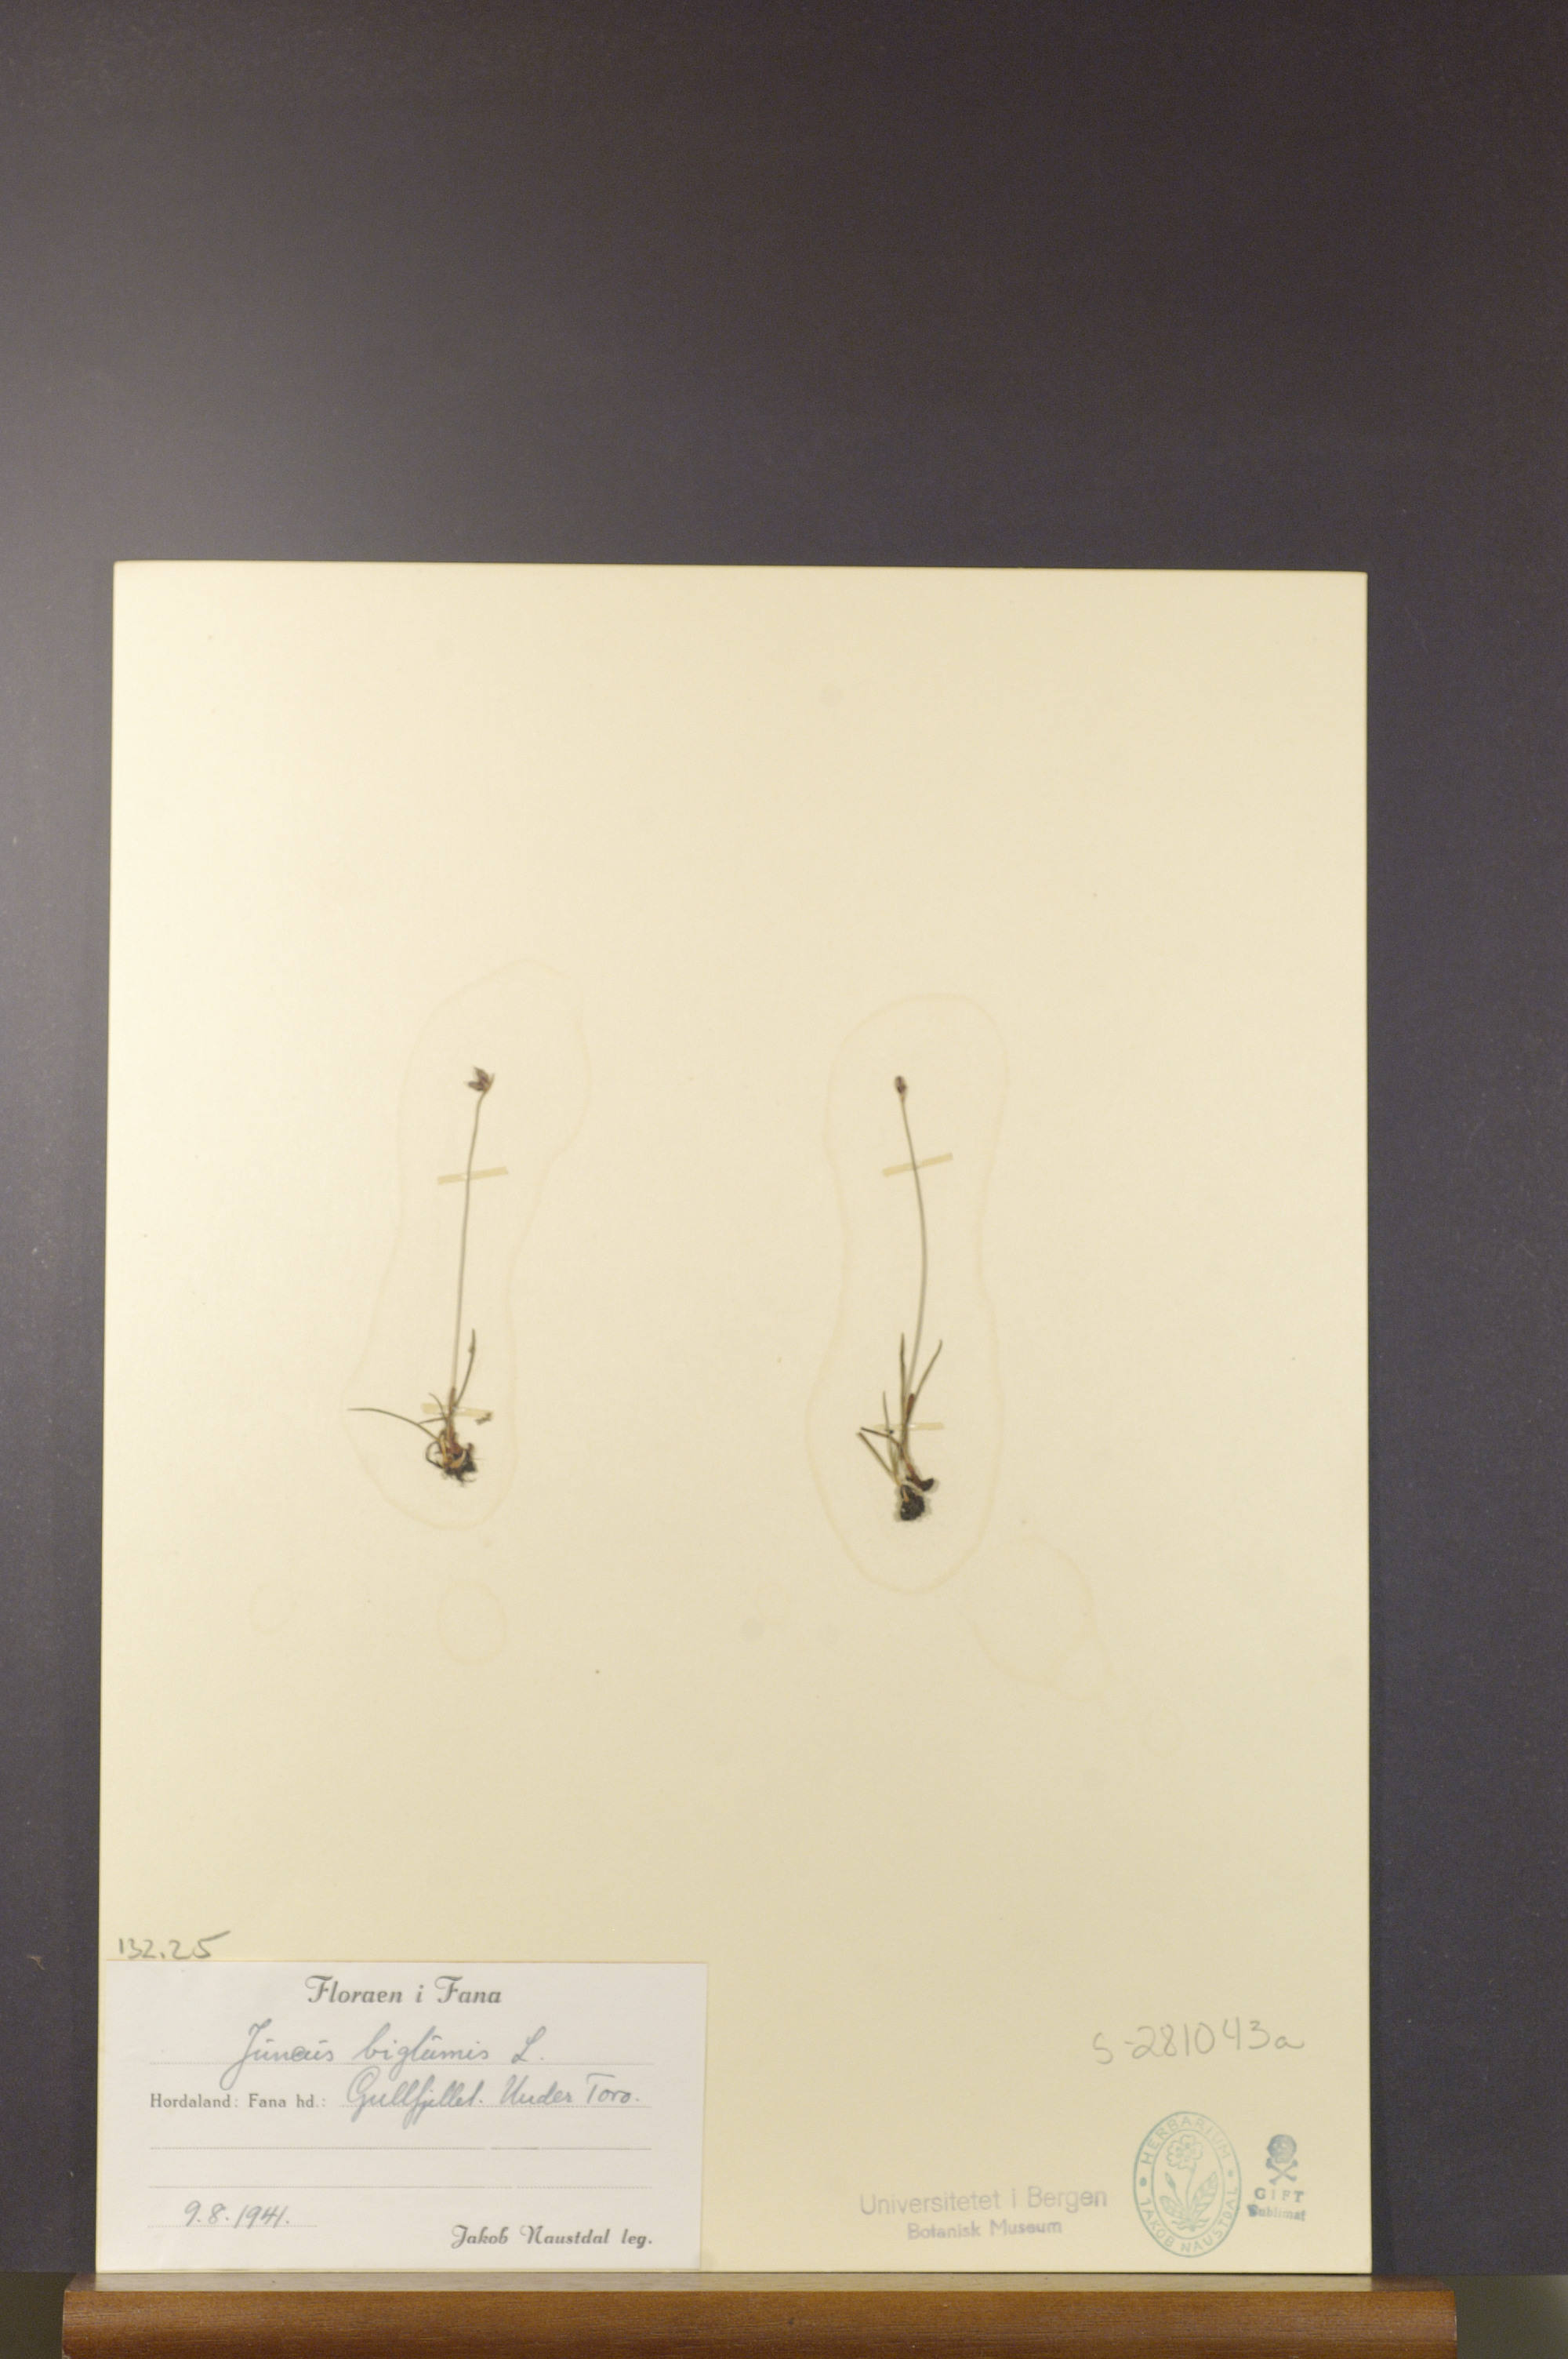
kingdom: Plantae
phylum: Tracheophyta
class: Liliopsida
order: Poales
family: Juncaceae
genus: Juncus
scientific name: Juncus biglumis
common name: Two-flowered rush
